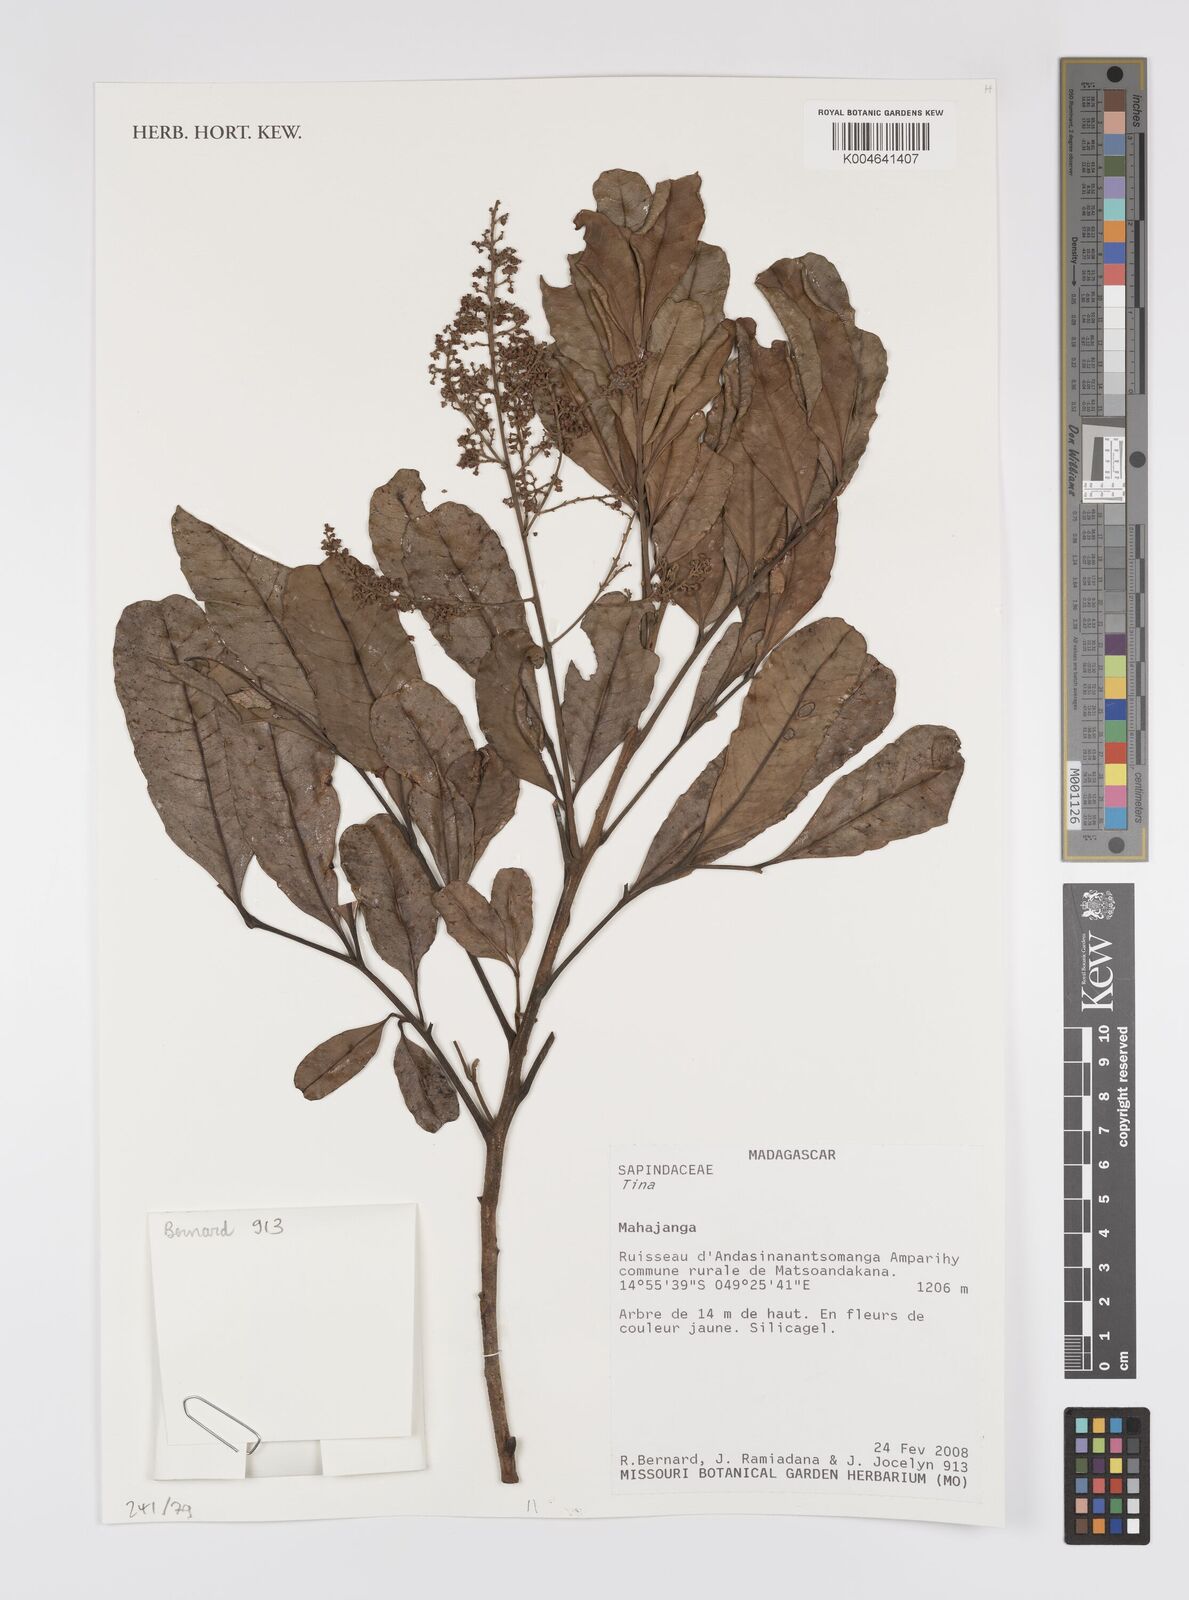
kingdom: Plantae
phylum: Tracheophyta
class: Magnoliopsida
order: Sapindales
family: Sapindaceae
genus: Tina
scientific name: Tina
